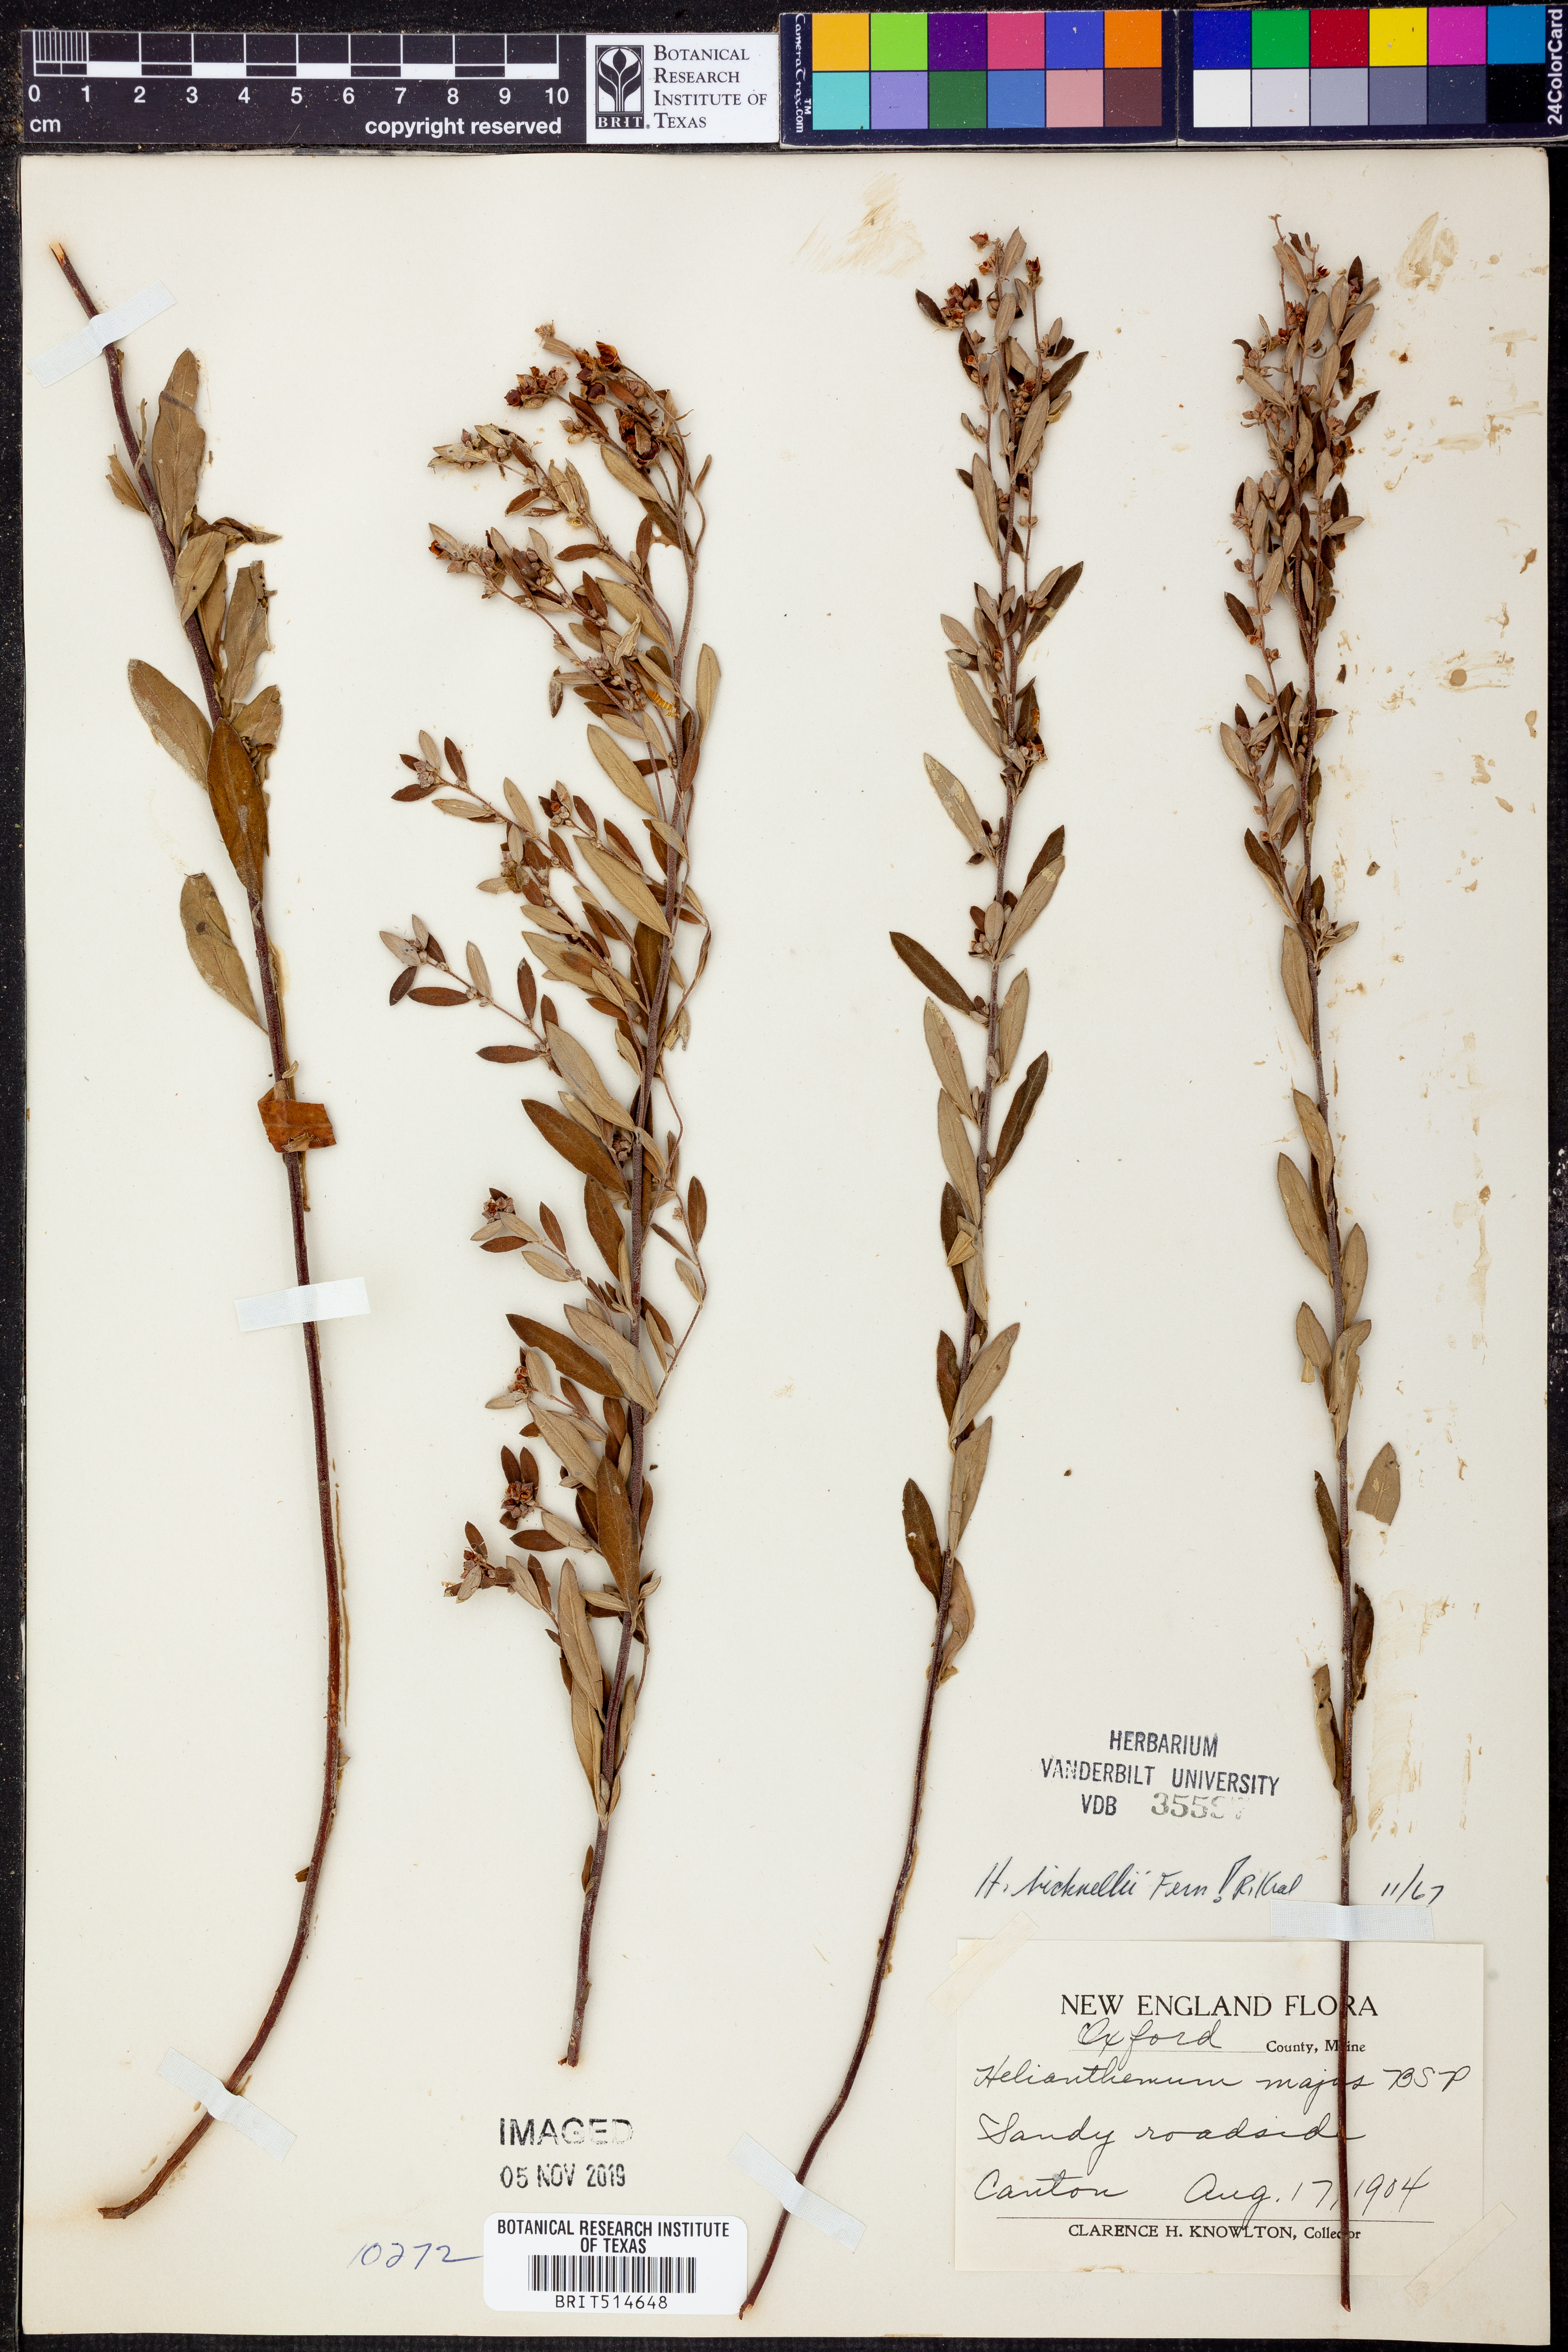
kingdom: Plantae
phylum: Tracheophyta
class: Magnoliopsida
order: Malvales
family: Cistaceae
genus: Crocanthemum
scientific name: Crocanthemum bicknellii
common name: Hoary frostweed
